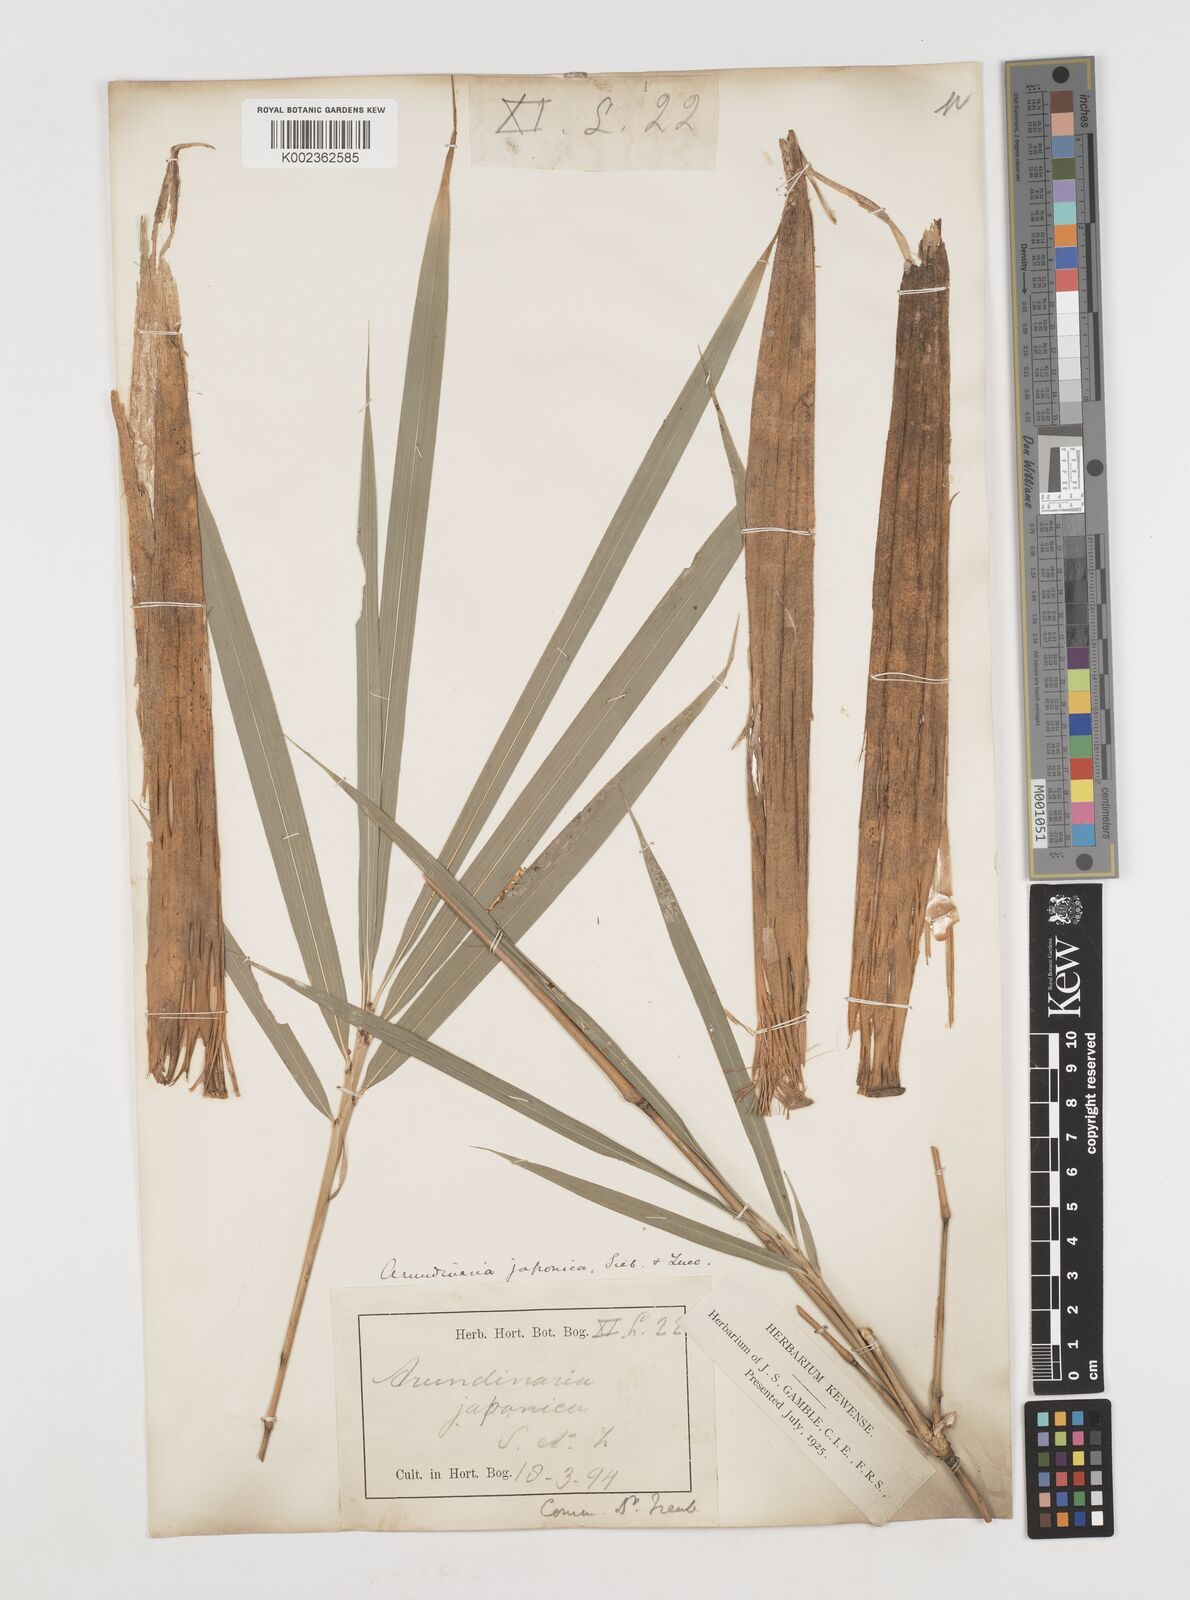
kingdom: Plantae
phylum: Tracheophyta
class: Liliopsida
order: Poales
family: Poaceae
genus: Pseudosasa
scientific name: Pseudosasa japonica
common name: Arrow bamboo
